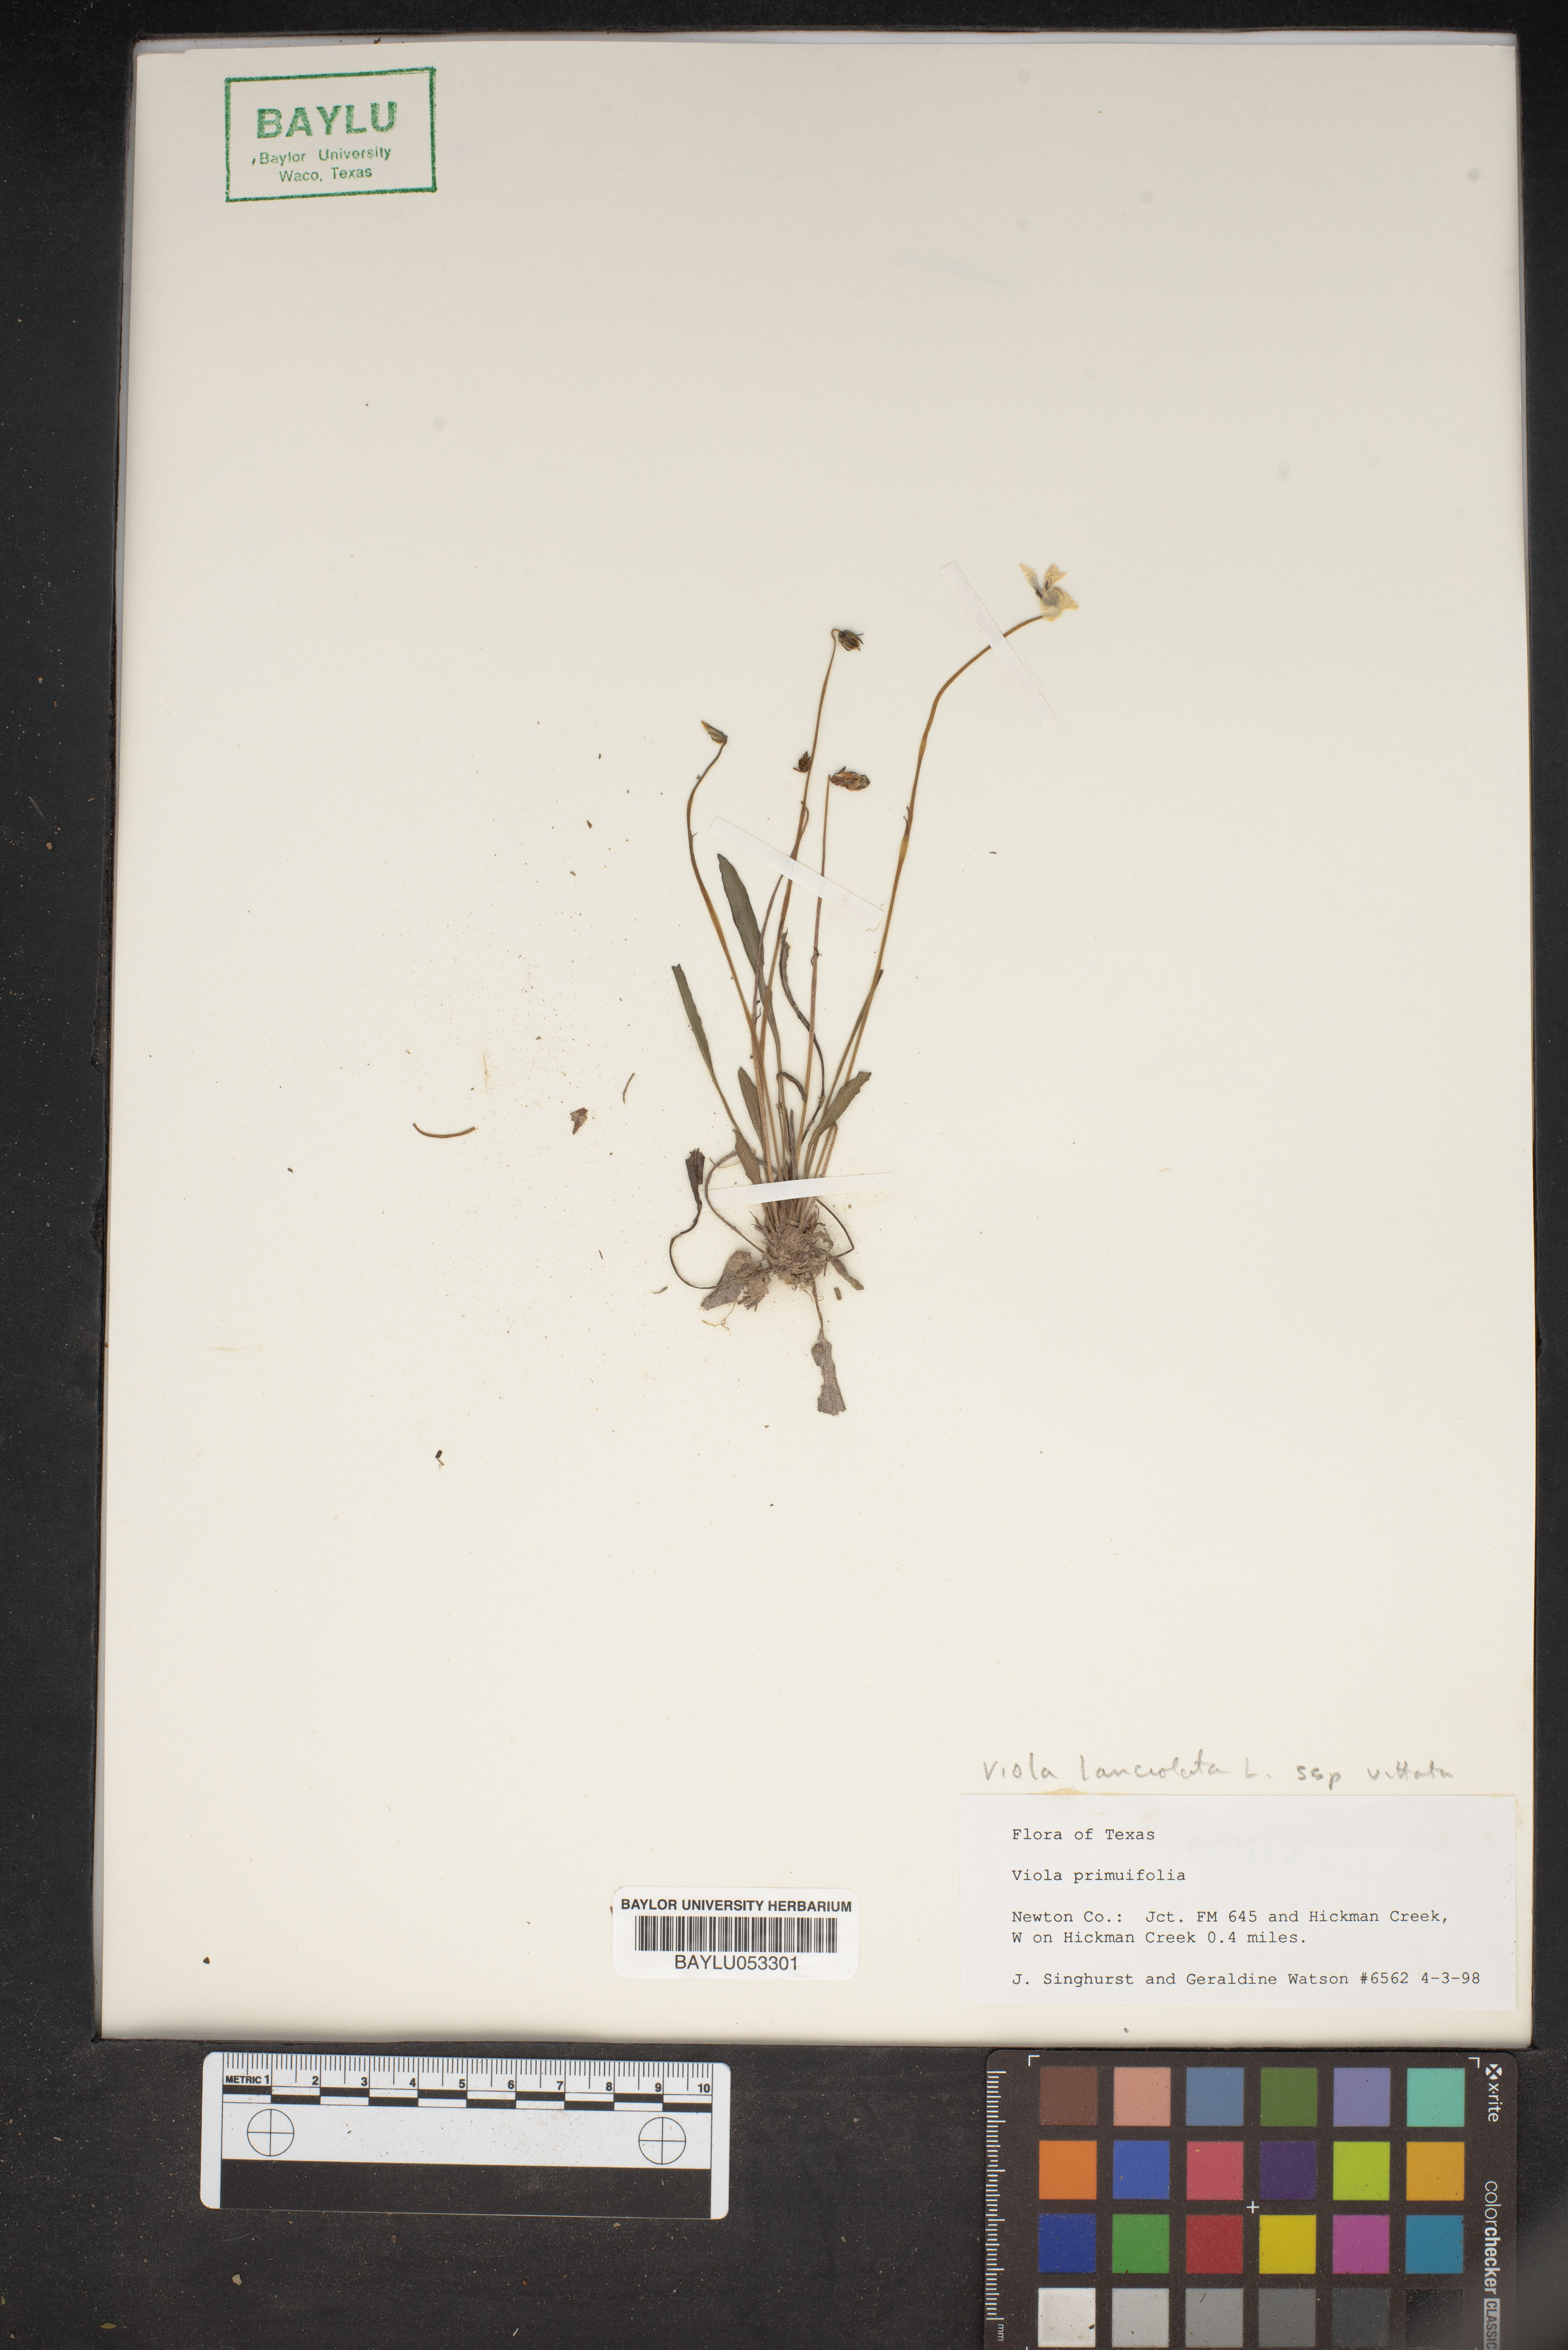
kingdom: Plantae
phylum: Tracheophyta
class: Magnoliopsida
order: Malpighiales
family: Violaceae
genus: Viola
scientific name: Viola primulifolia
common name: Primrose-leaf violet
